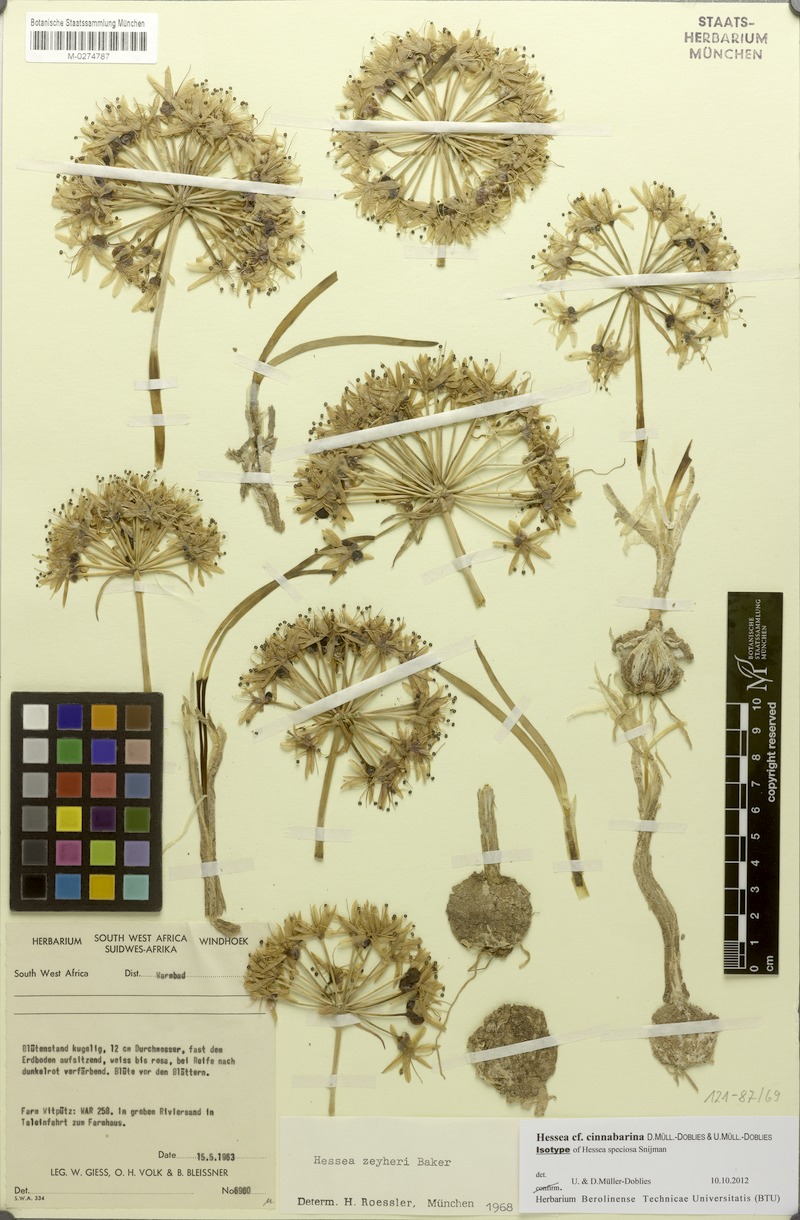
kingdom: Plantae
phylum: Tracheophyta
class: Liliopsida
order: Asparagales
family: Amaryllidaceae
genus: Hessea
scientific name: Hessea stellaris
